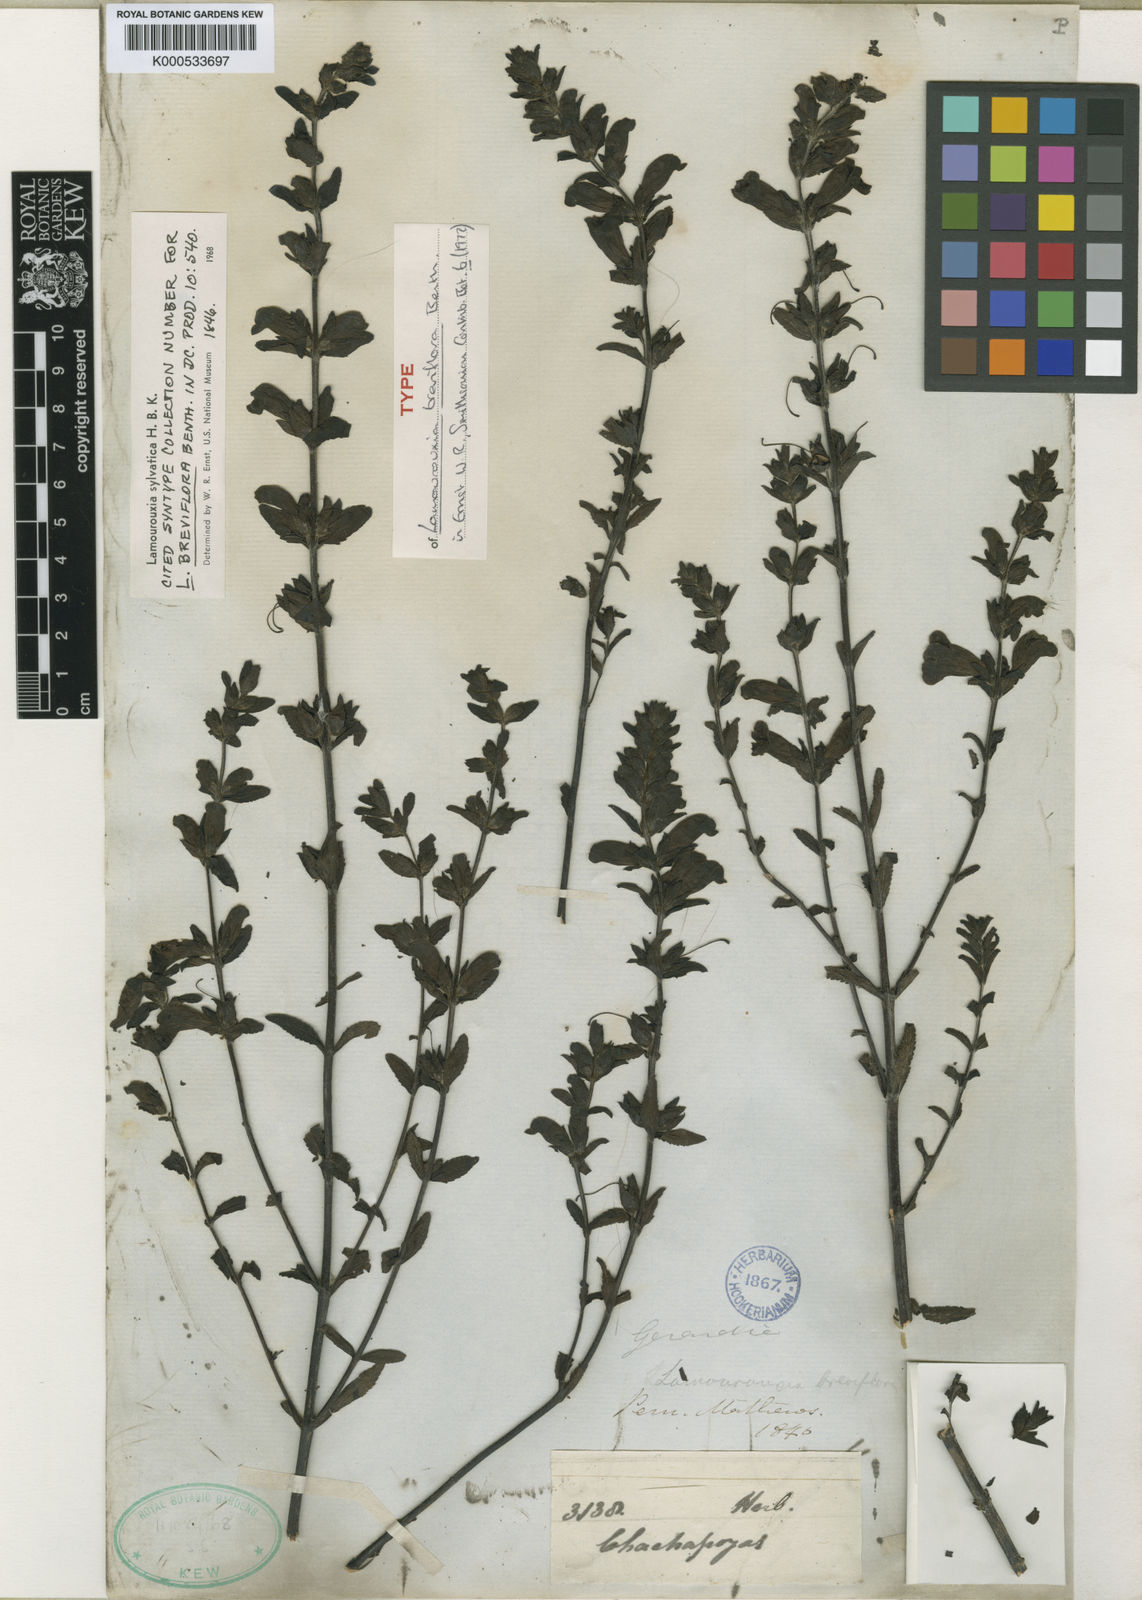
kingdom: Plantae
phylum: Tracheophyta
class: Magnoliopsida
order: Lamiales
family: Orobanchaceae
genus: Lamourouxia
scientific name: Lamourouxia sylvatica
